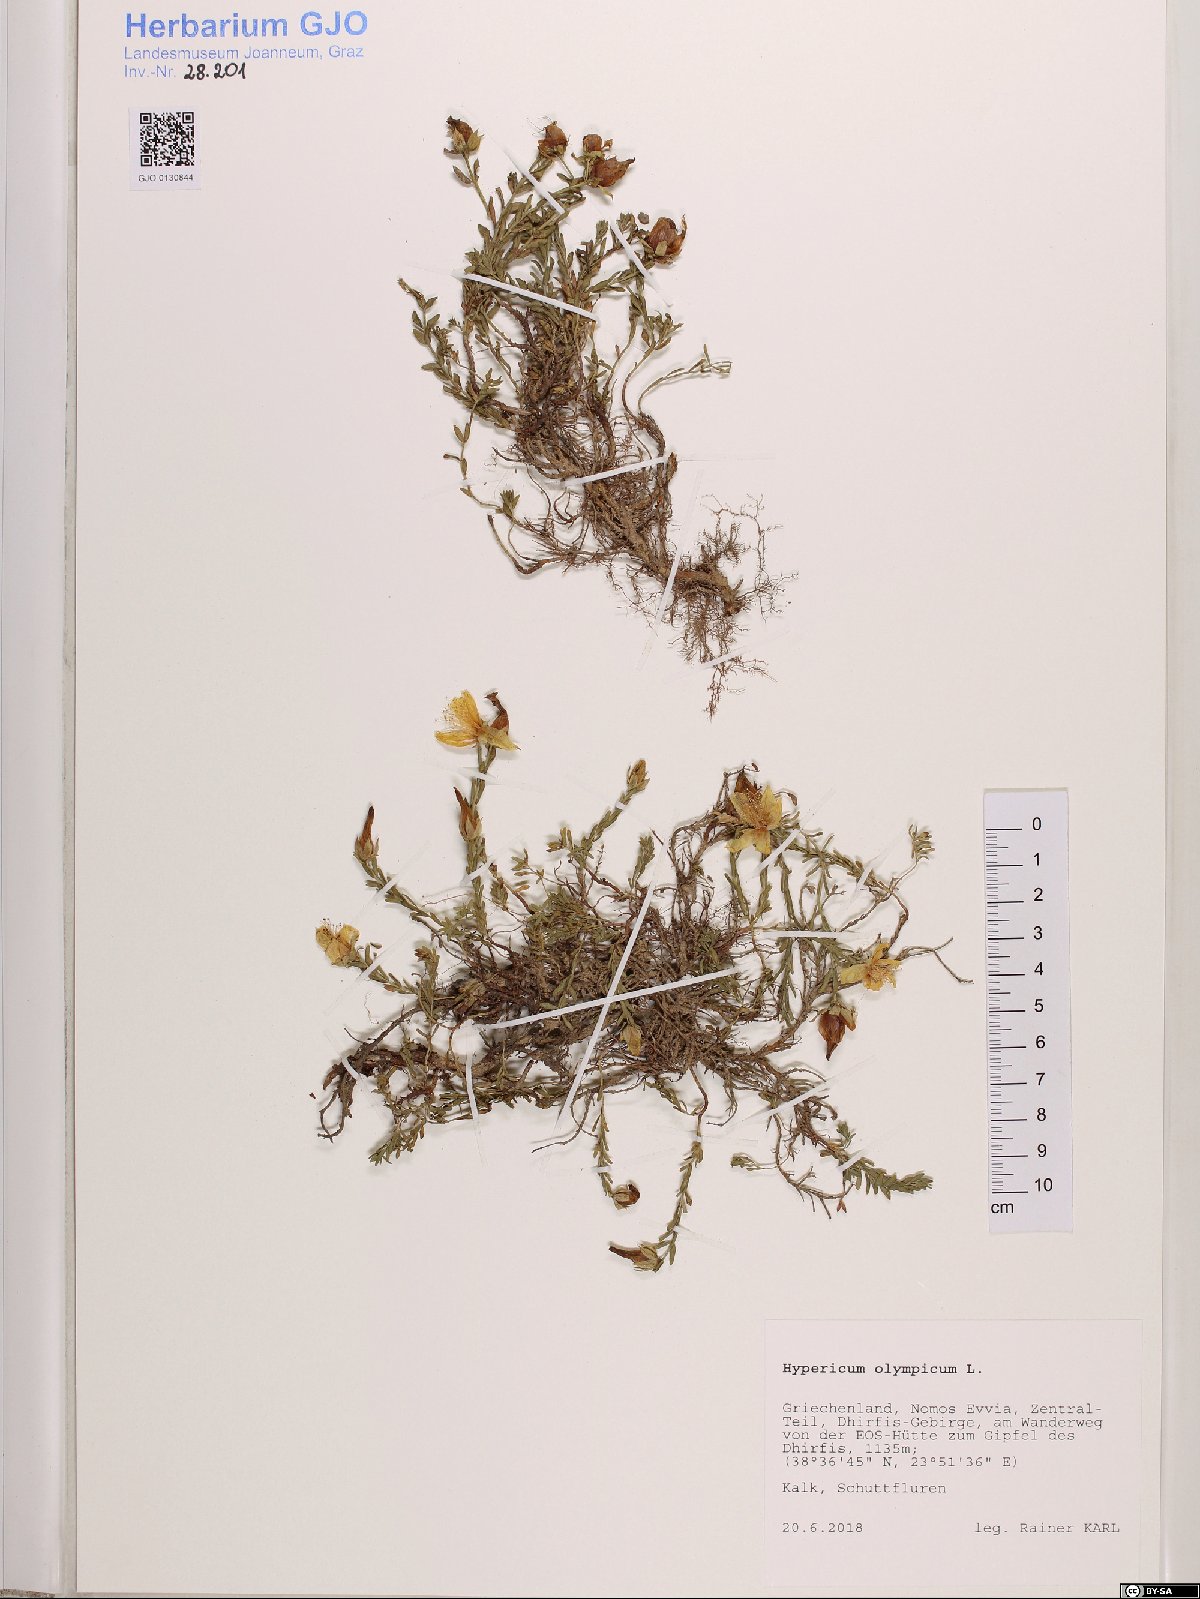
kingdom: Plantae
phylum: Tracheophyta
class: Magnoliopsida
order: Malpighiales
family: Hypericaceae
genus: Hypericum
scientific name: Hypericum olympicum
